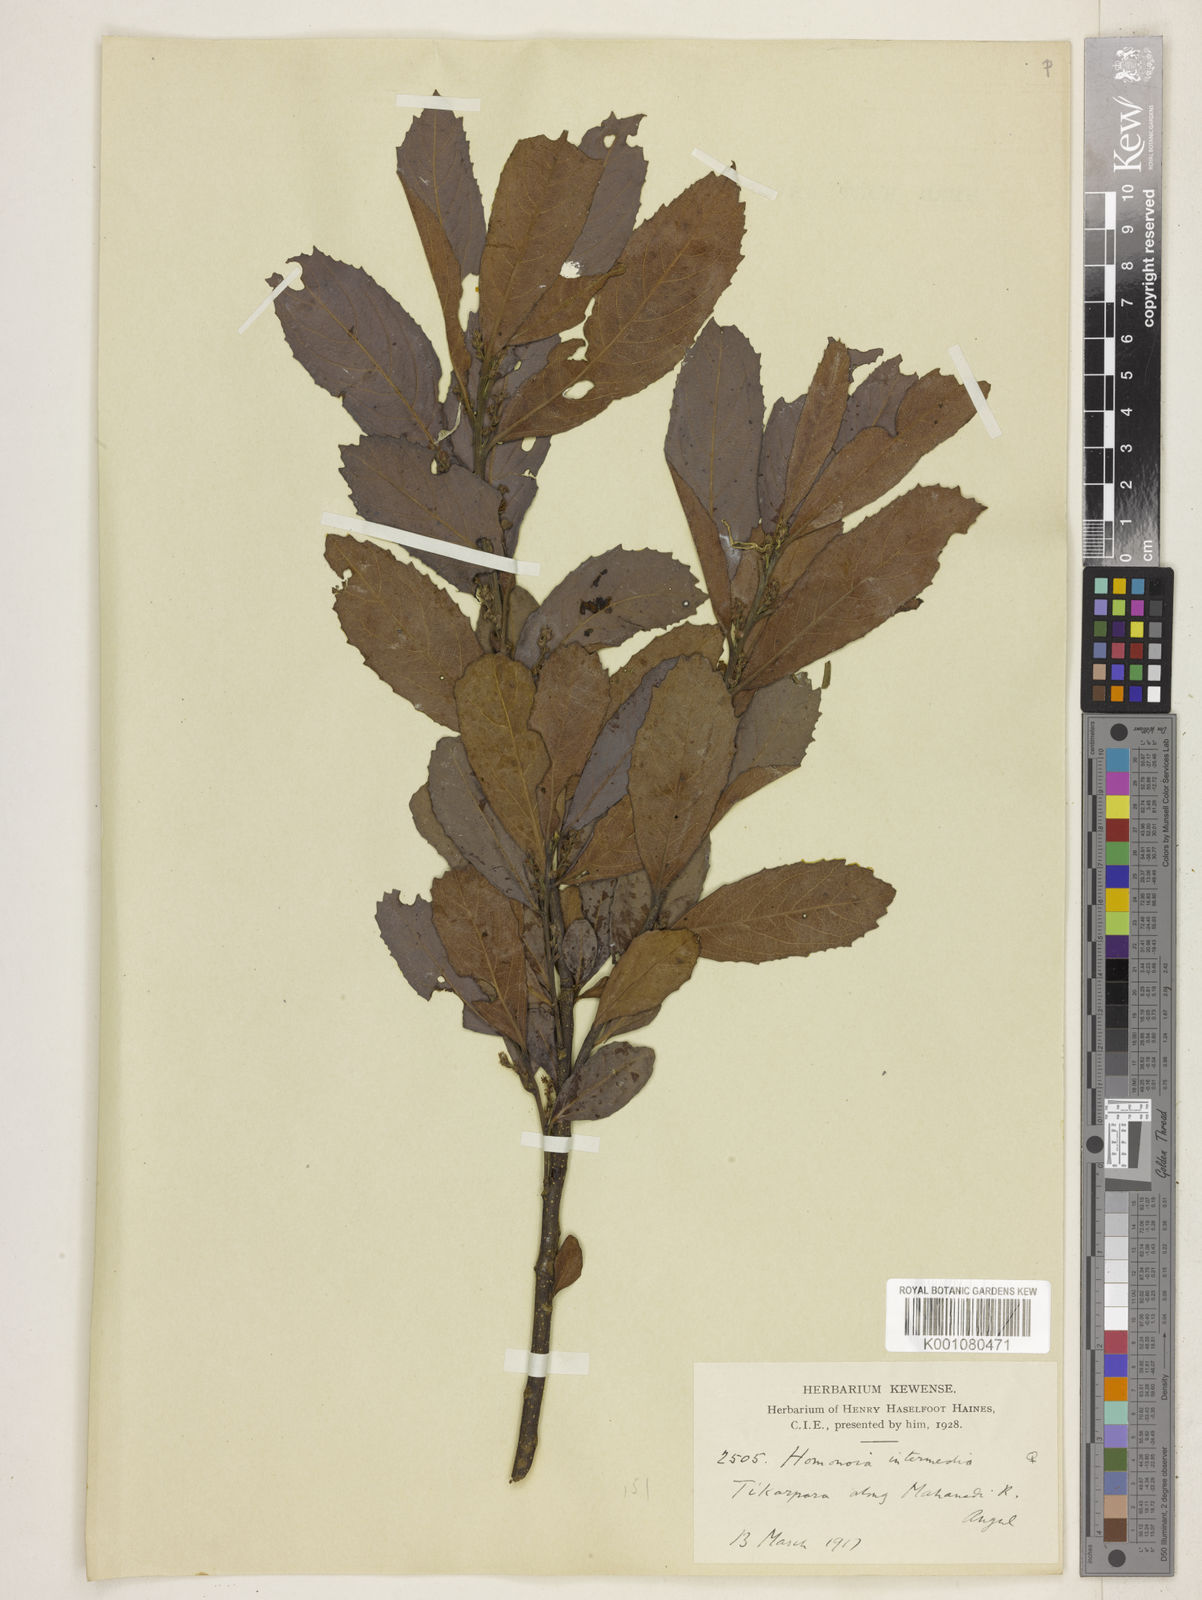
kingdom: Plantae
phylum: Tracheophyta
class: Magnoliopsida
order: Malpighiales
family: Euphorbiaceae
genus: Homonoia
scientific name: Homonoia intermedia
